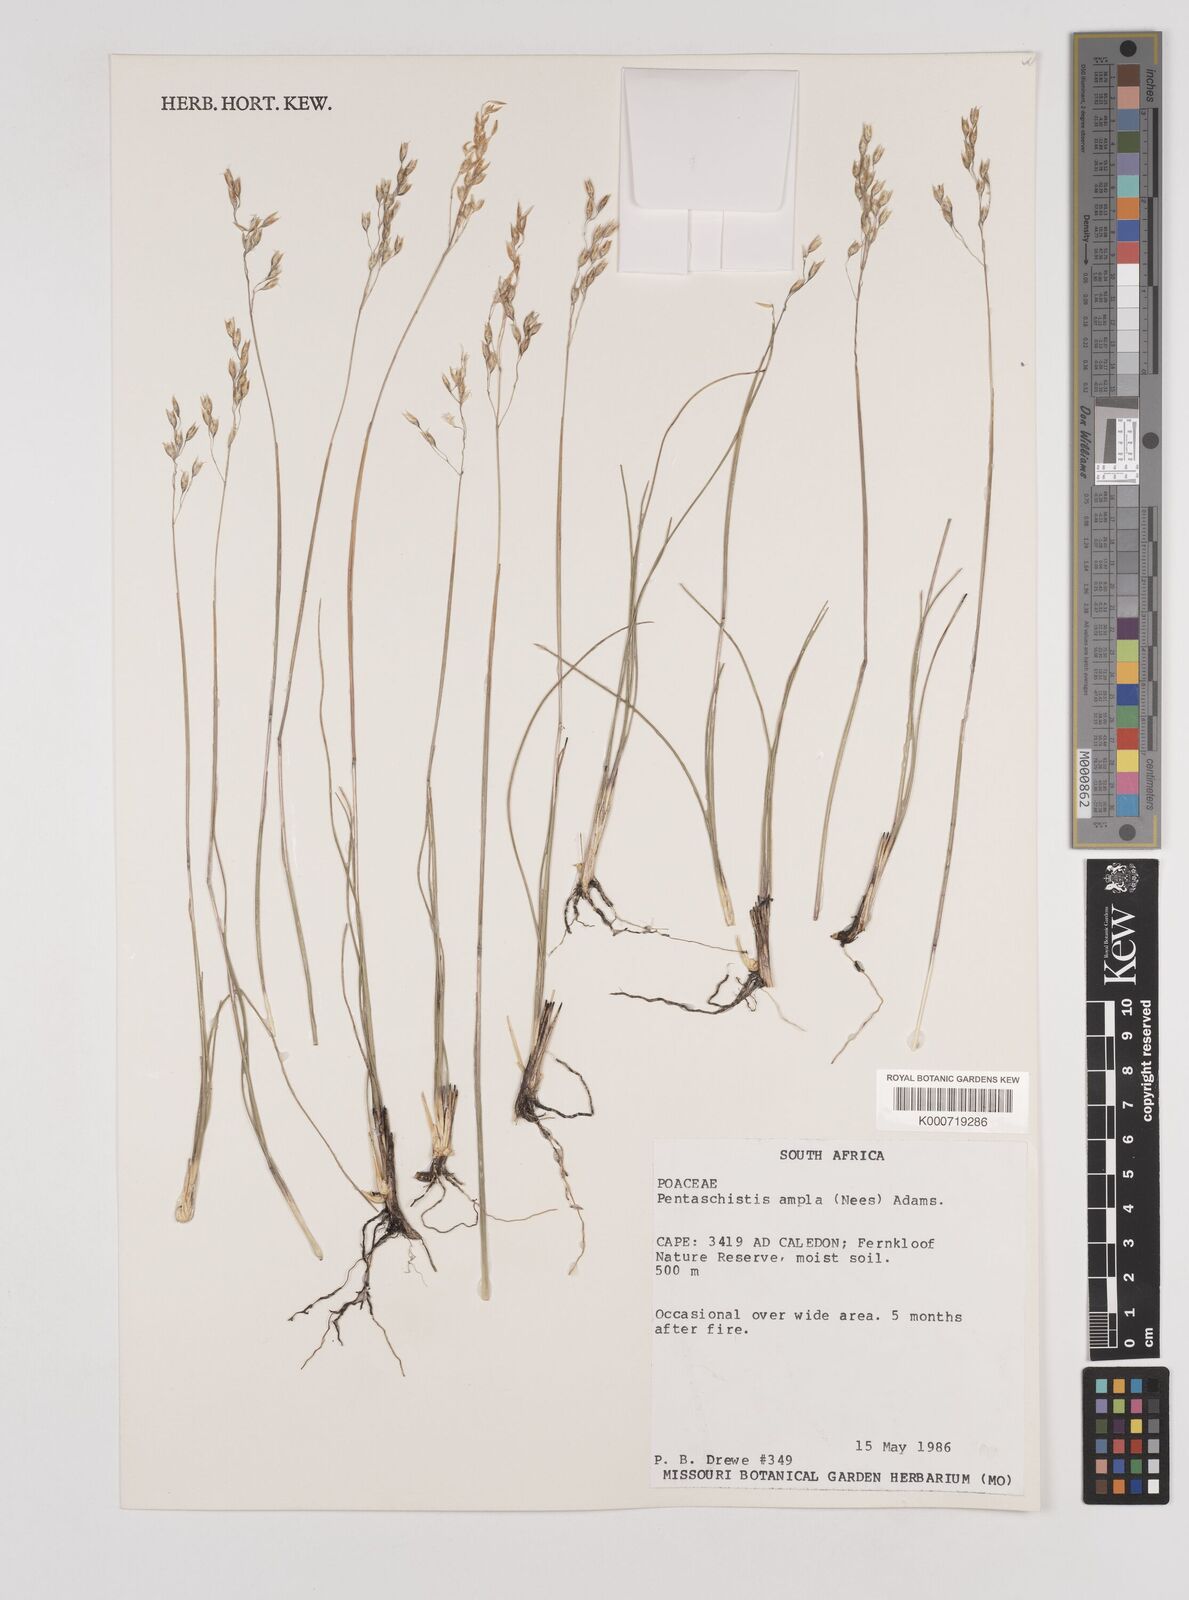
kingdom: Plantae
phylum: Tracheophyta
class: Liliopsida
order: Poales
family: Poaceae
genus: Pentameris
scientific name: Pentameris ampla
